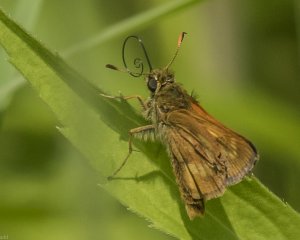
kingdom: Animalia
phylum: Arthropoda
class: Insecta
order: Lepidoptera
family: Hesperiidae
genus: Polites
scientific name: Polites
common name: Long Dash Skipper
